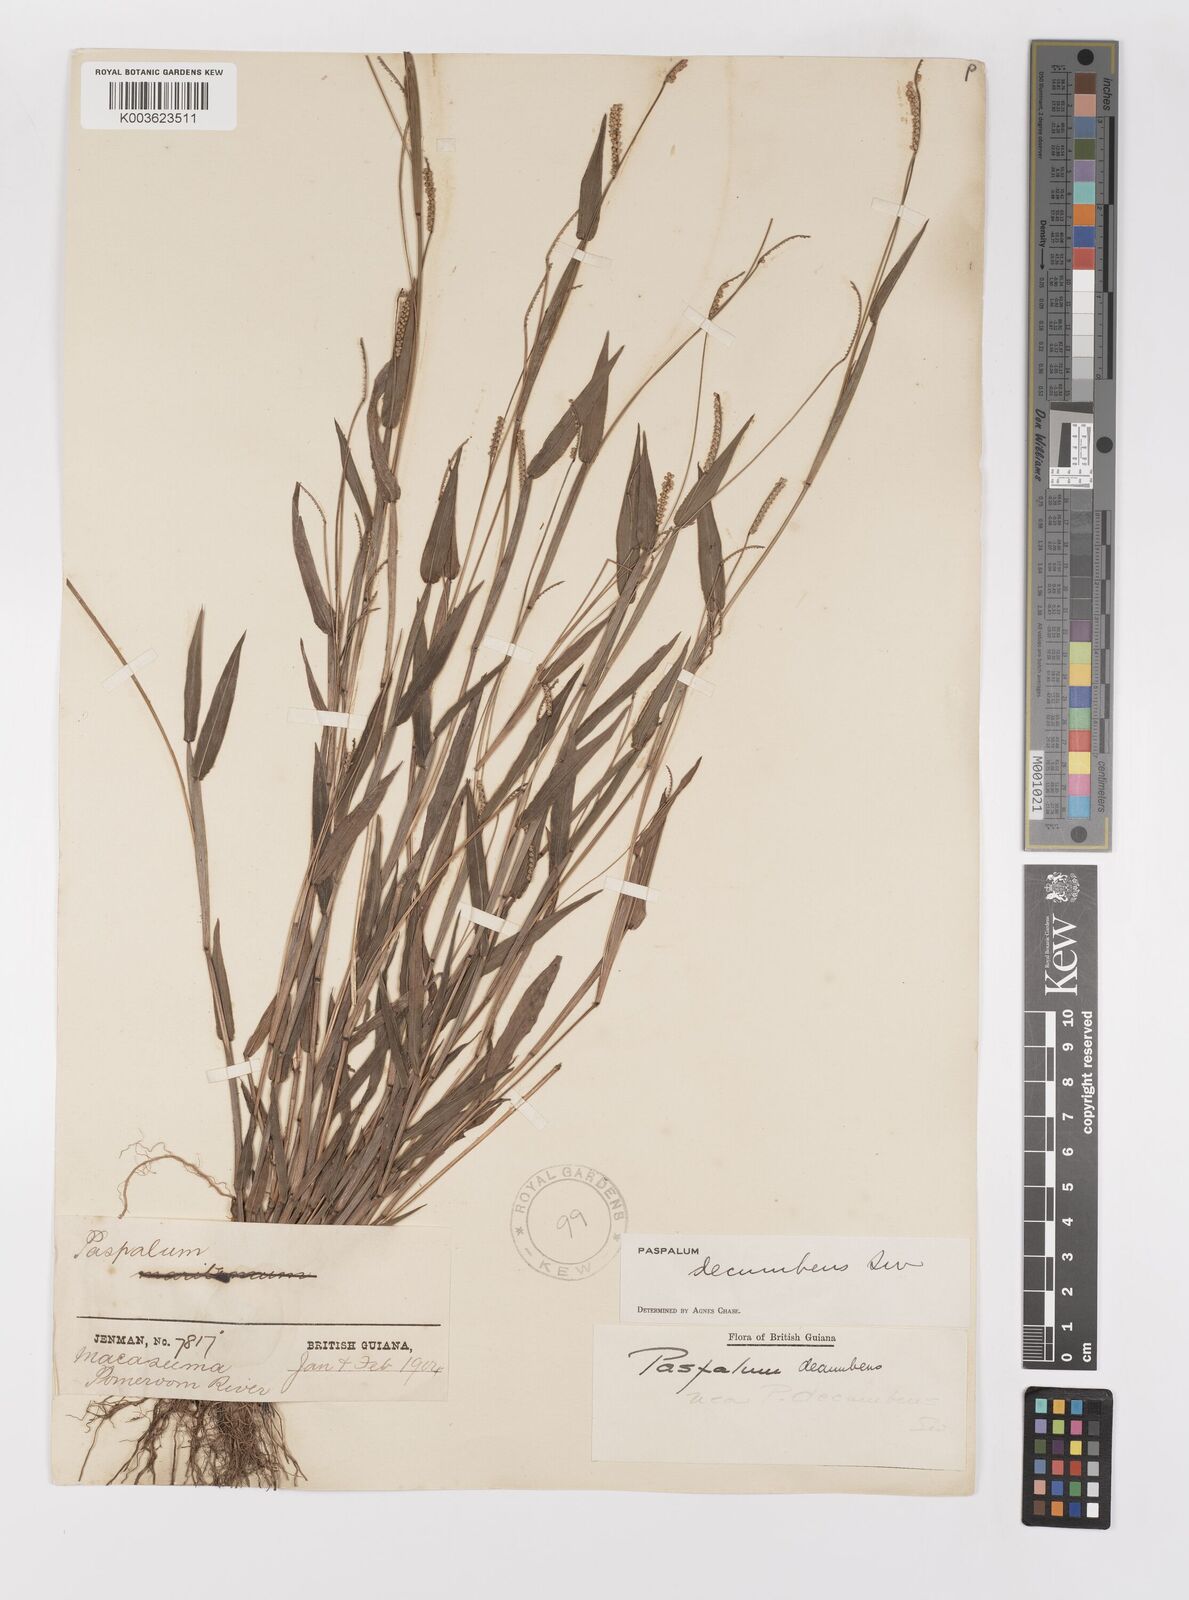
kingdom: Plantae
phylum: Tracheophyta
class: Liliopsida
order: Poales
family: Poaceae
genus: Paspalum
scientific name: Paspalum decumbens
